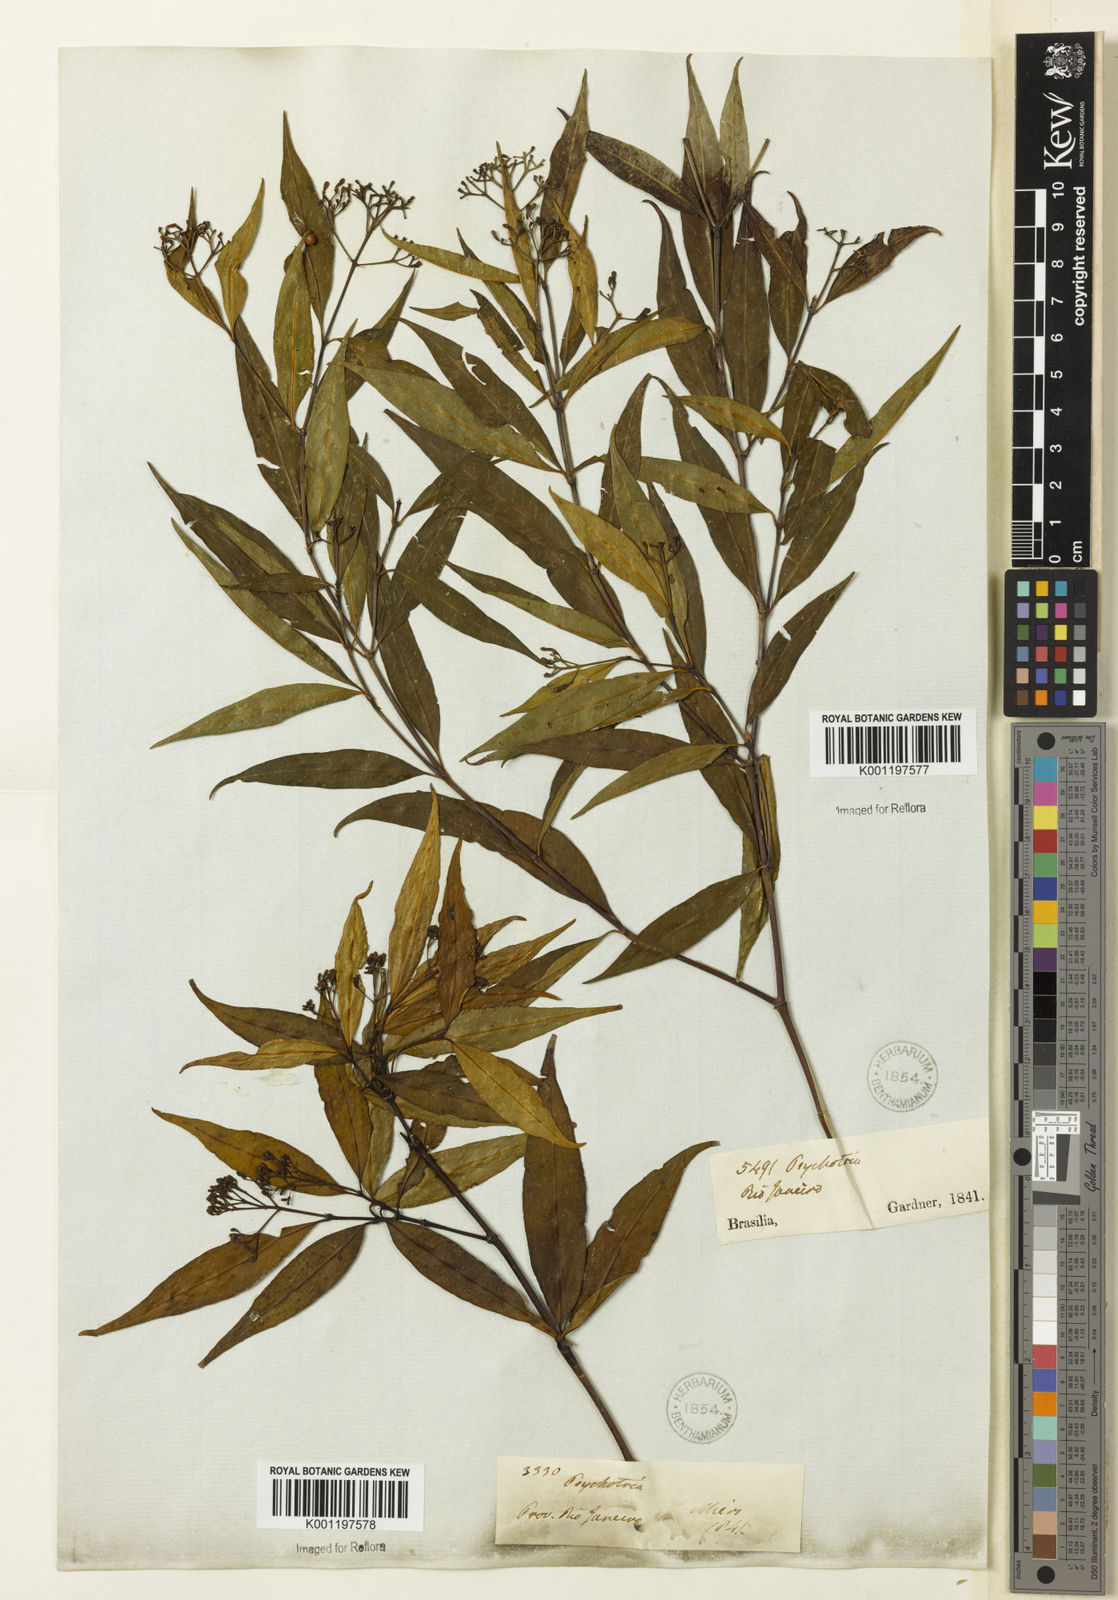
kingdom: Plantae
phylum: Tracheophyta
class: Magnoliopsida
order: Gentianales
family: Rubiaceae
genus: Psychotria
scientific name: Psychotria leiocarpa
